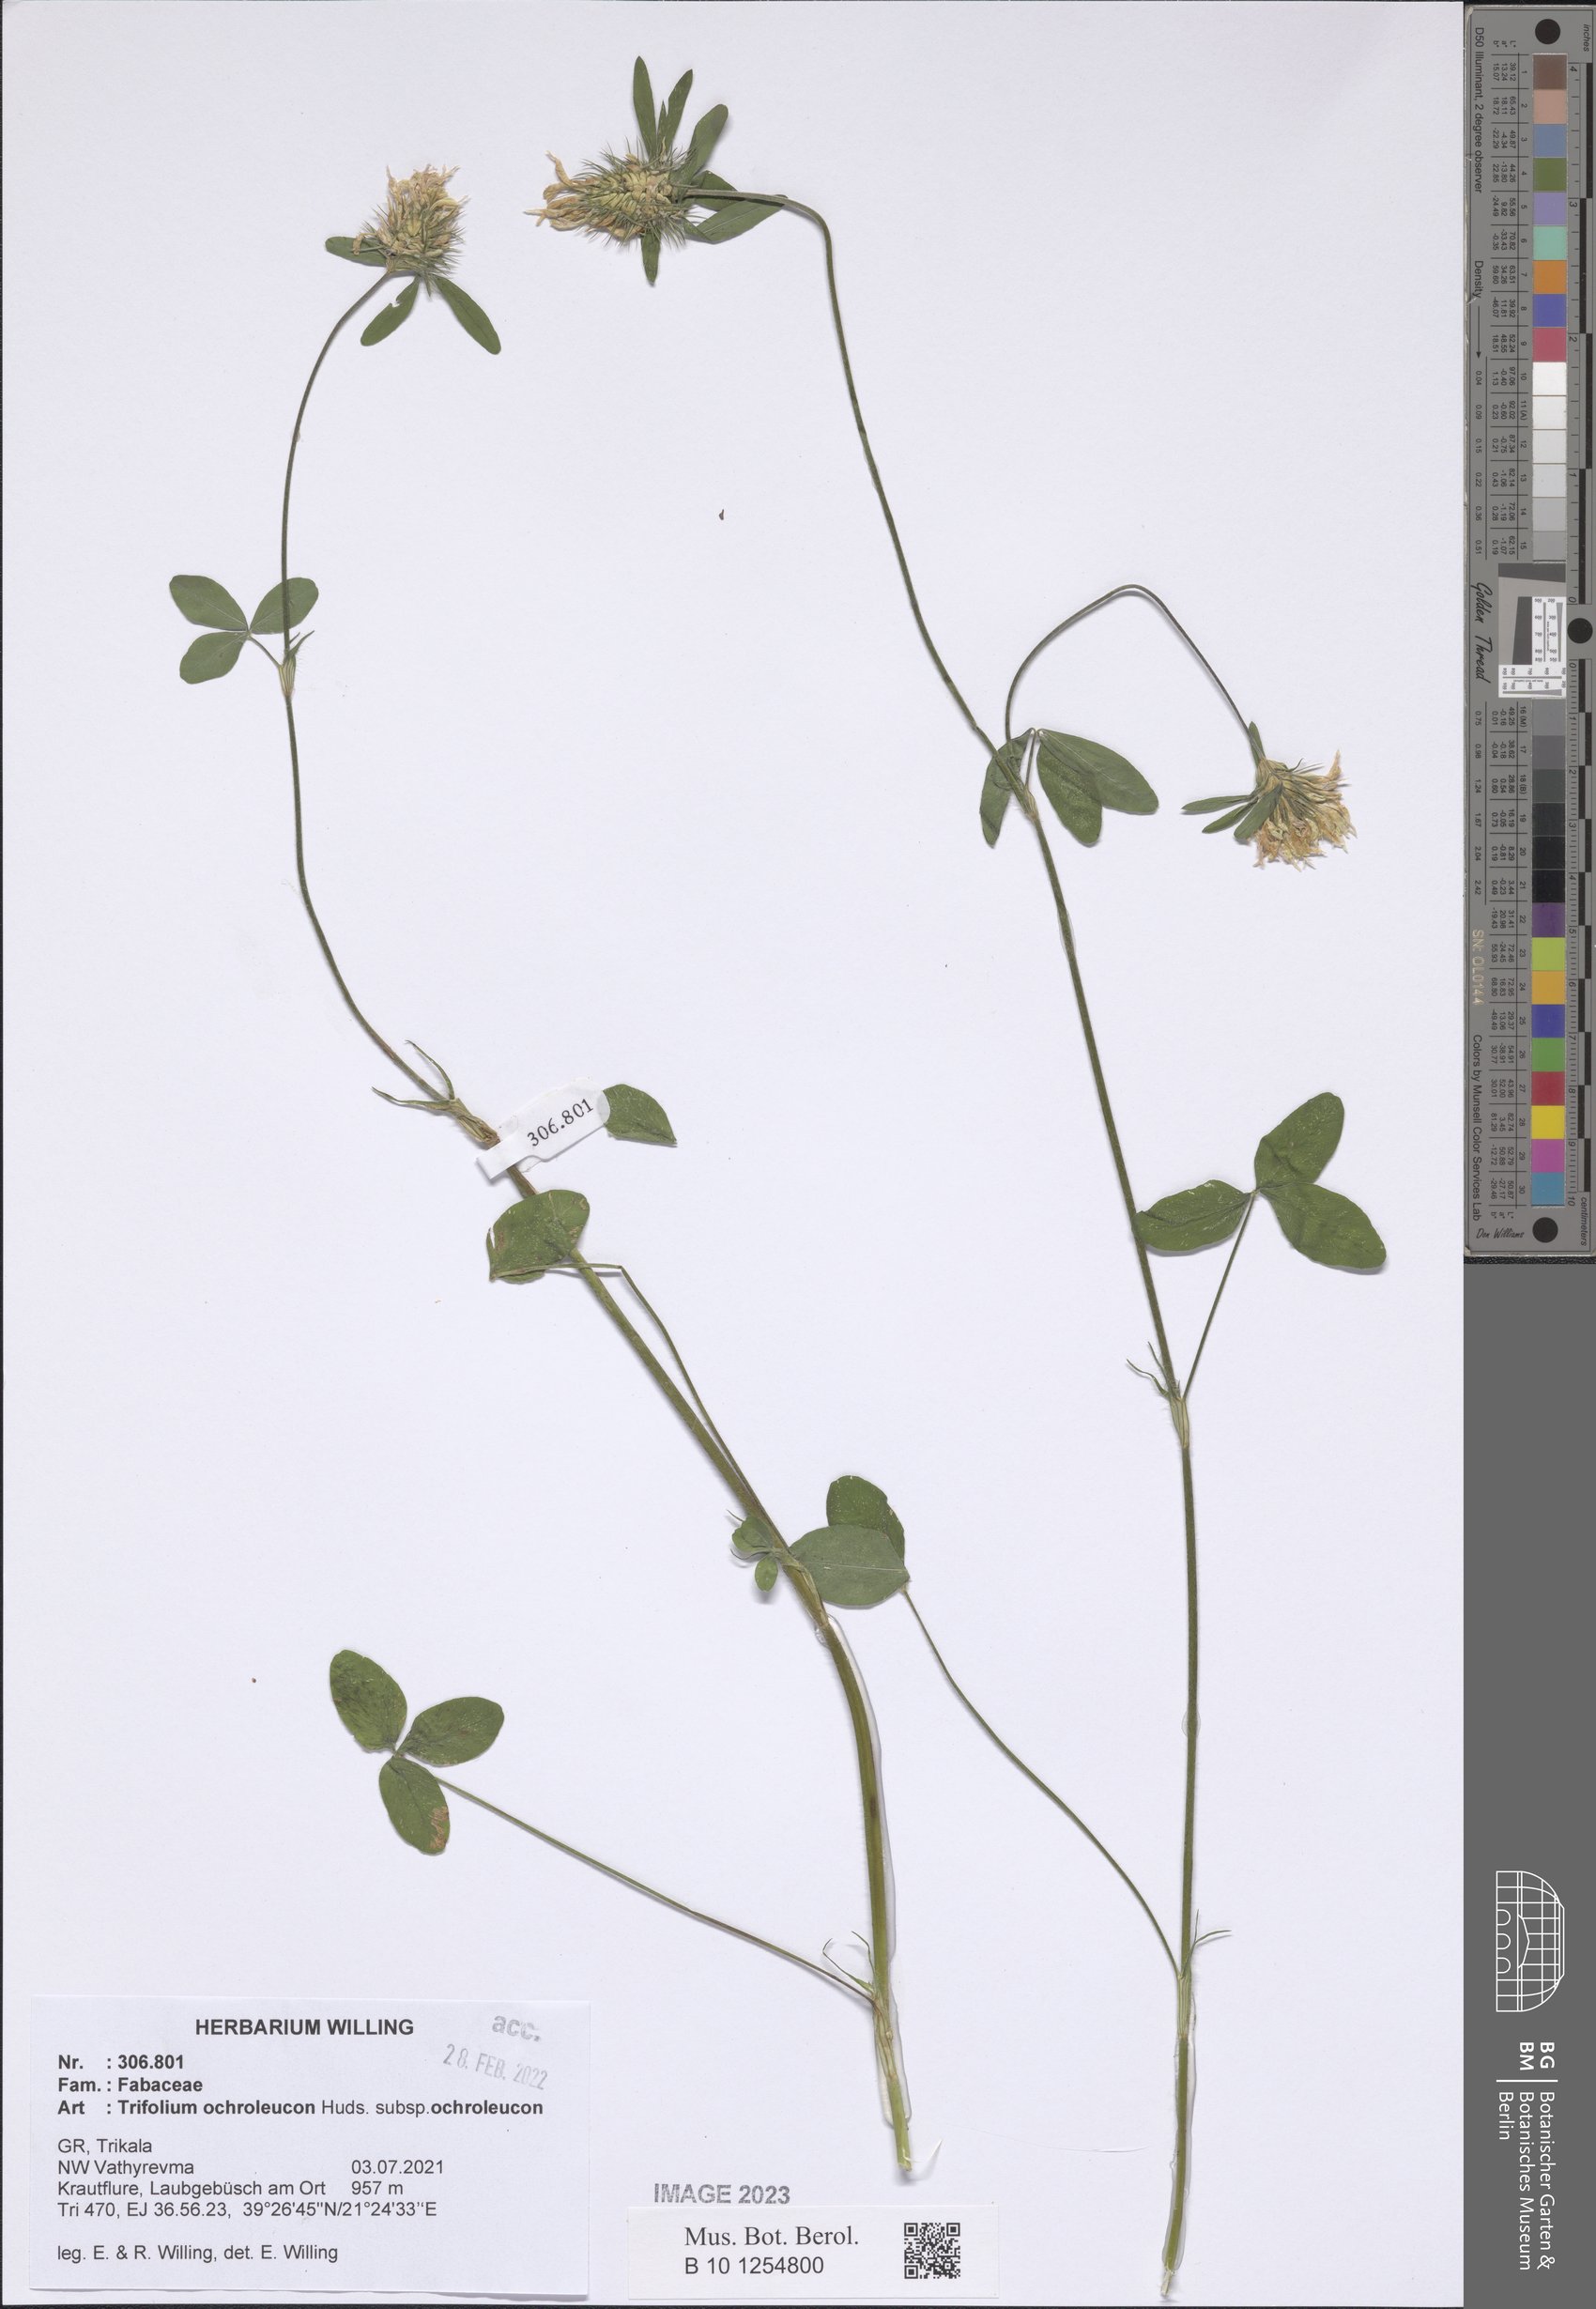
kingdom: Plantae
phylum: Tracheophyta
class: Magnoliopsida
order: Fabales
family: Fabaceae
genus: Trifolium
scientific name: Trifolium ochroleucon
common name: Sulphur clover
